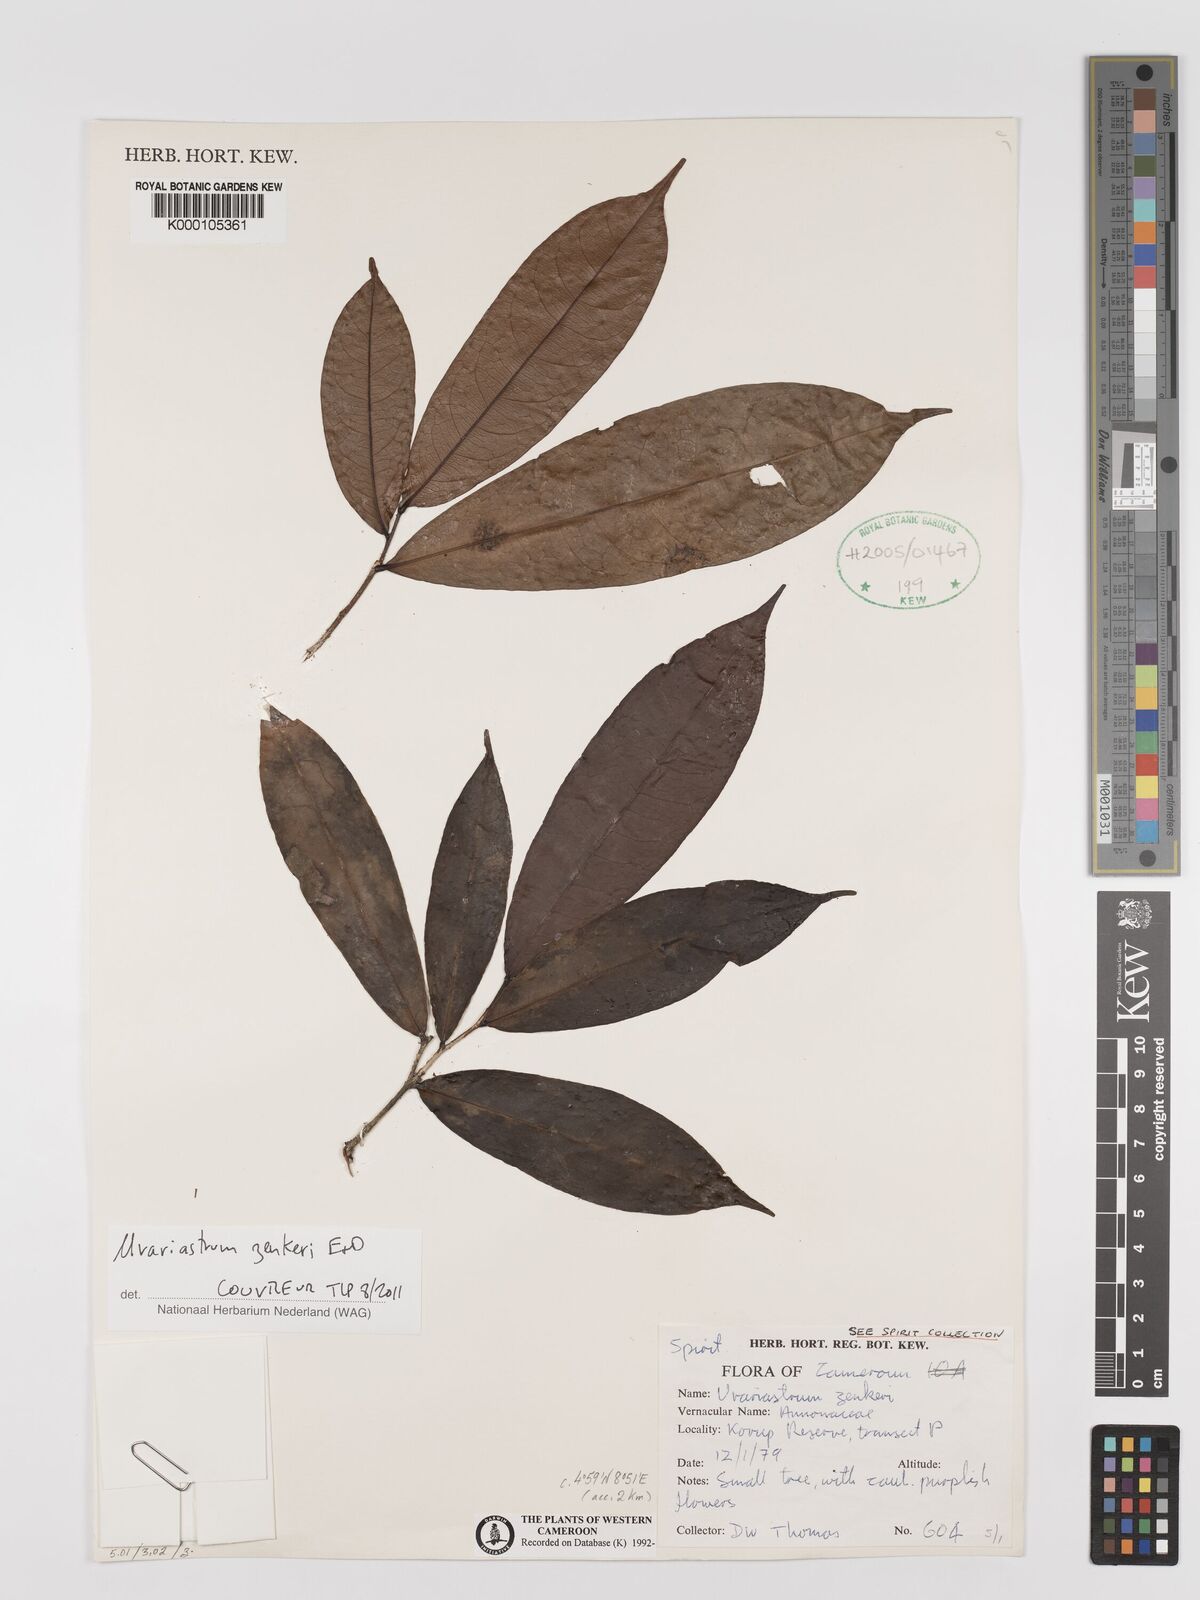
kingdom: Plantae
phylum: Tracheophyta
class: Magnoliopsida
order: Magnoliales
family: Annonaceae
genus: Uvariastrum
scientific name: Uvariastrum zenkeri
